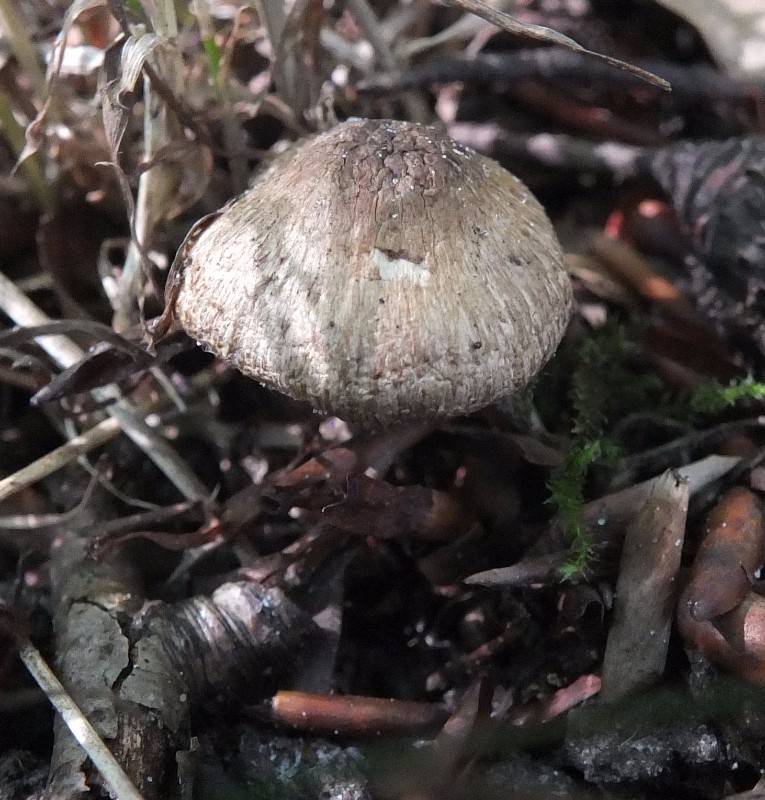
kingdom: Fungi
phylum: Basidiomycota
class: Agaricomycetes
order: Agaricales
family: Inocybaceae
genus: Inocybe
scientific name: Inocybe fraudans
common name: pæreduftende trævlhat
